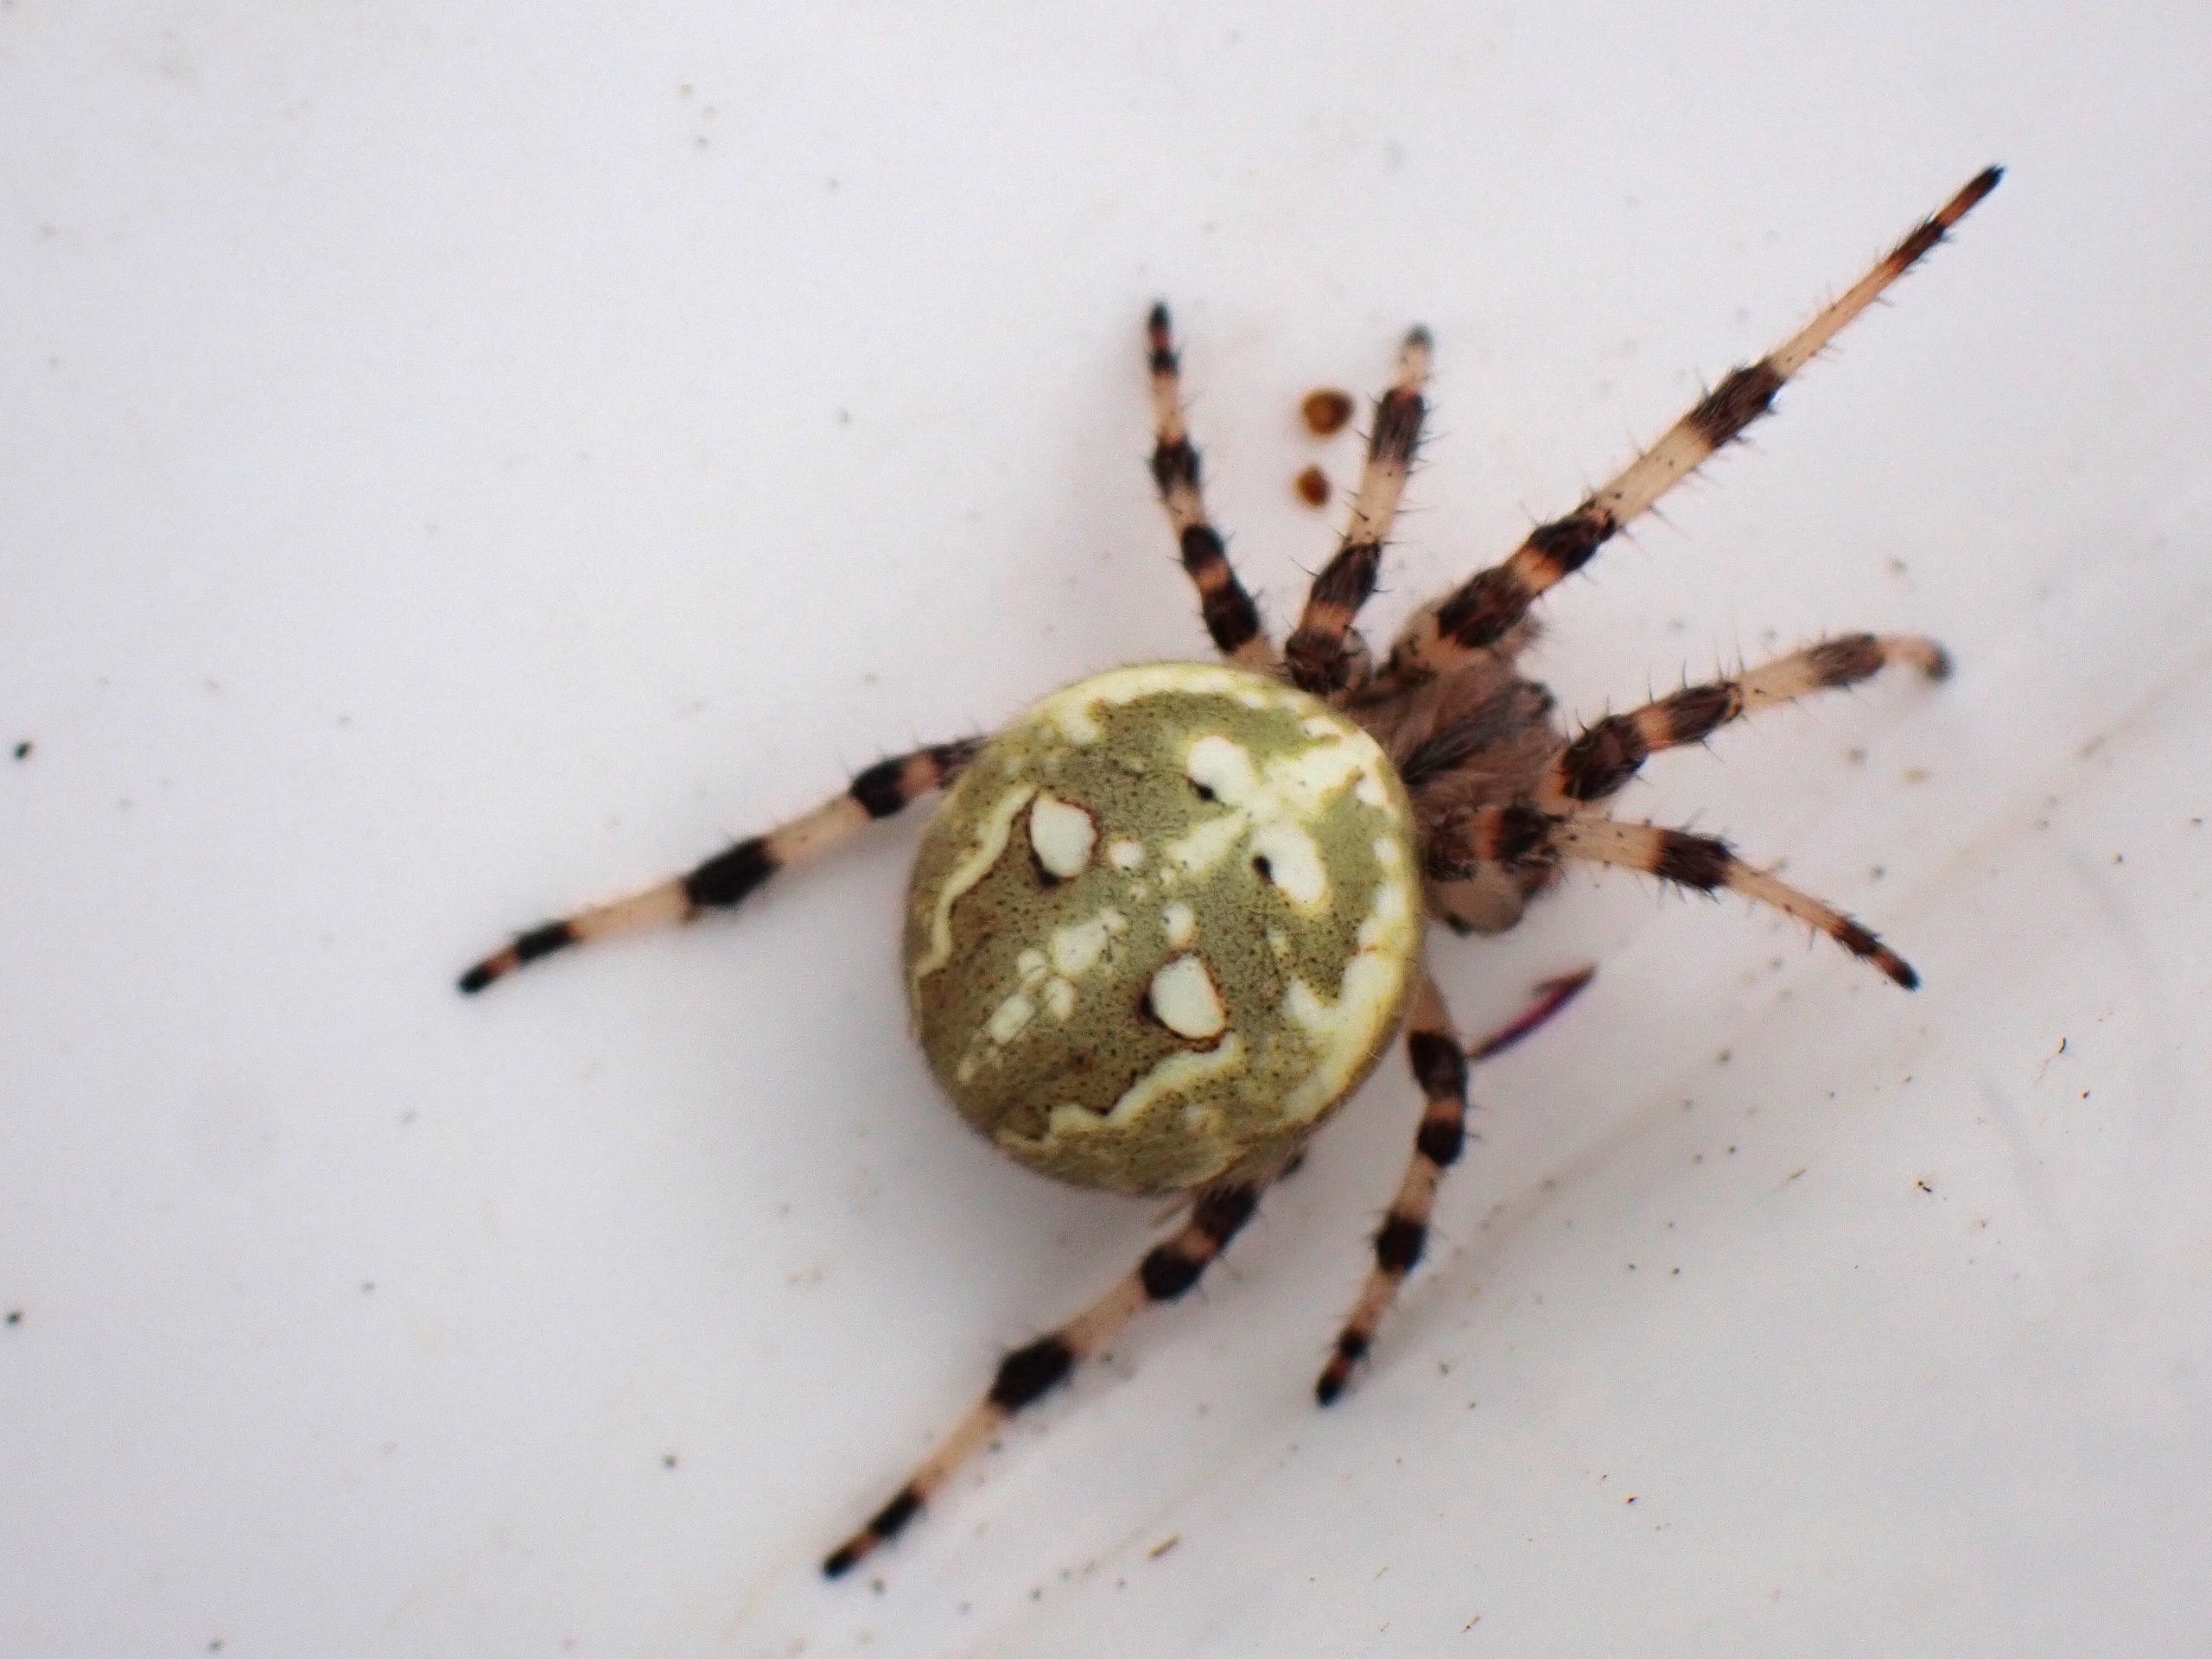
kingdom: Animalia
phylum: Arthropoda
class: Arachnida
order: Araneae
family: Araneidae
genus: Araneus
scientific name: Araneus quadratus
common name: Kvadratedderkop
